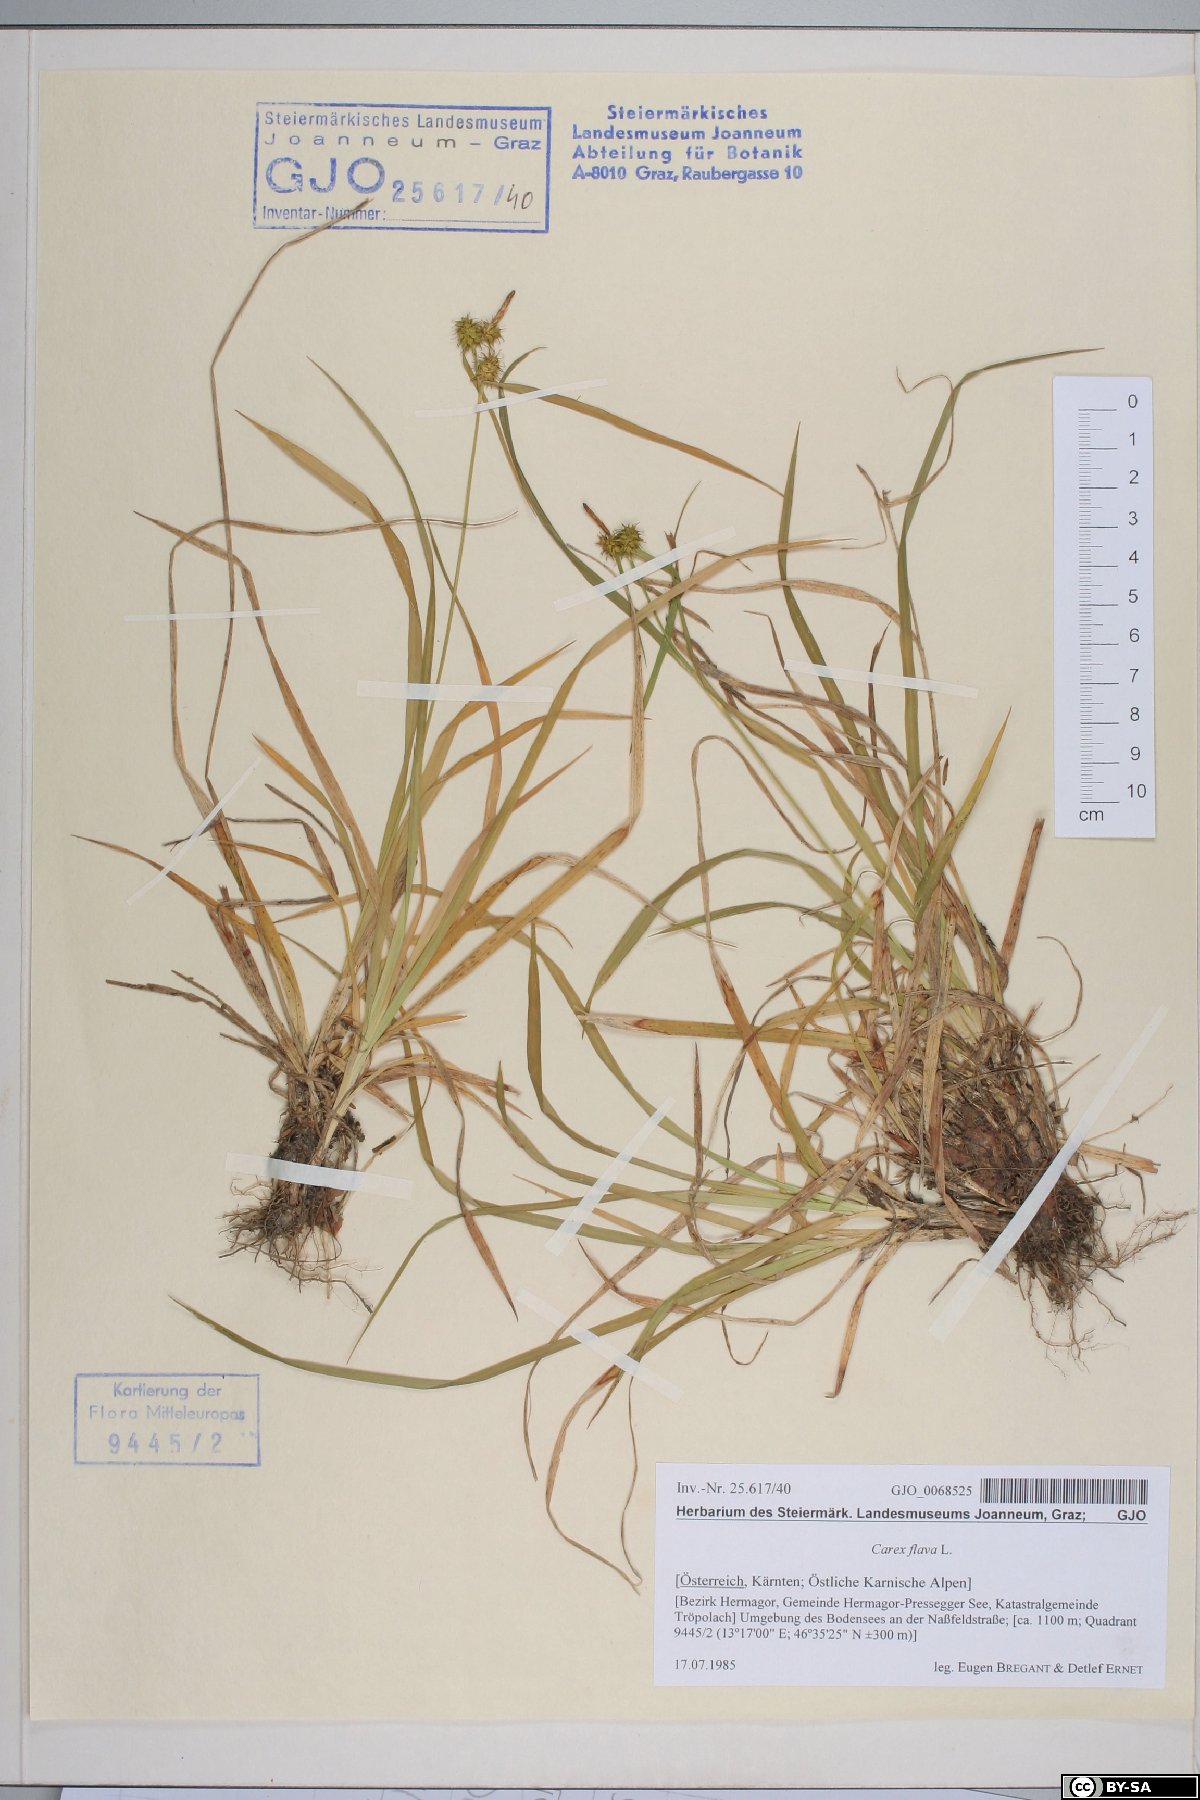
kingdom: Plantae
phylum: Tracheophyta
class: Liliopsida
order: Poales
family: Cyperaceae
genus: Carex
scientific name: Carex flava
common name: Large yellow-sedge
